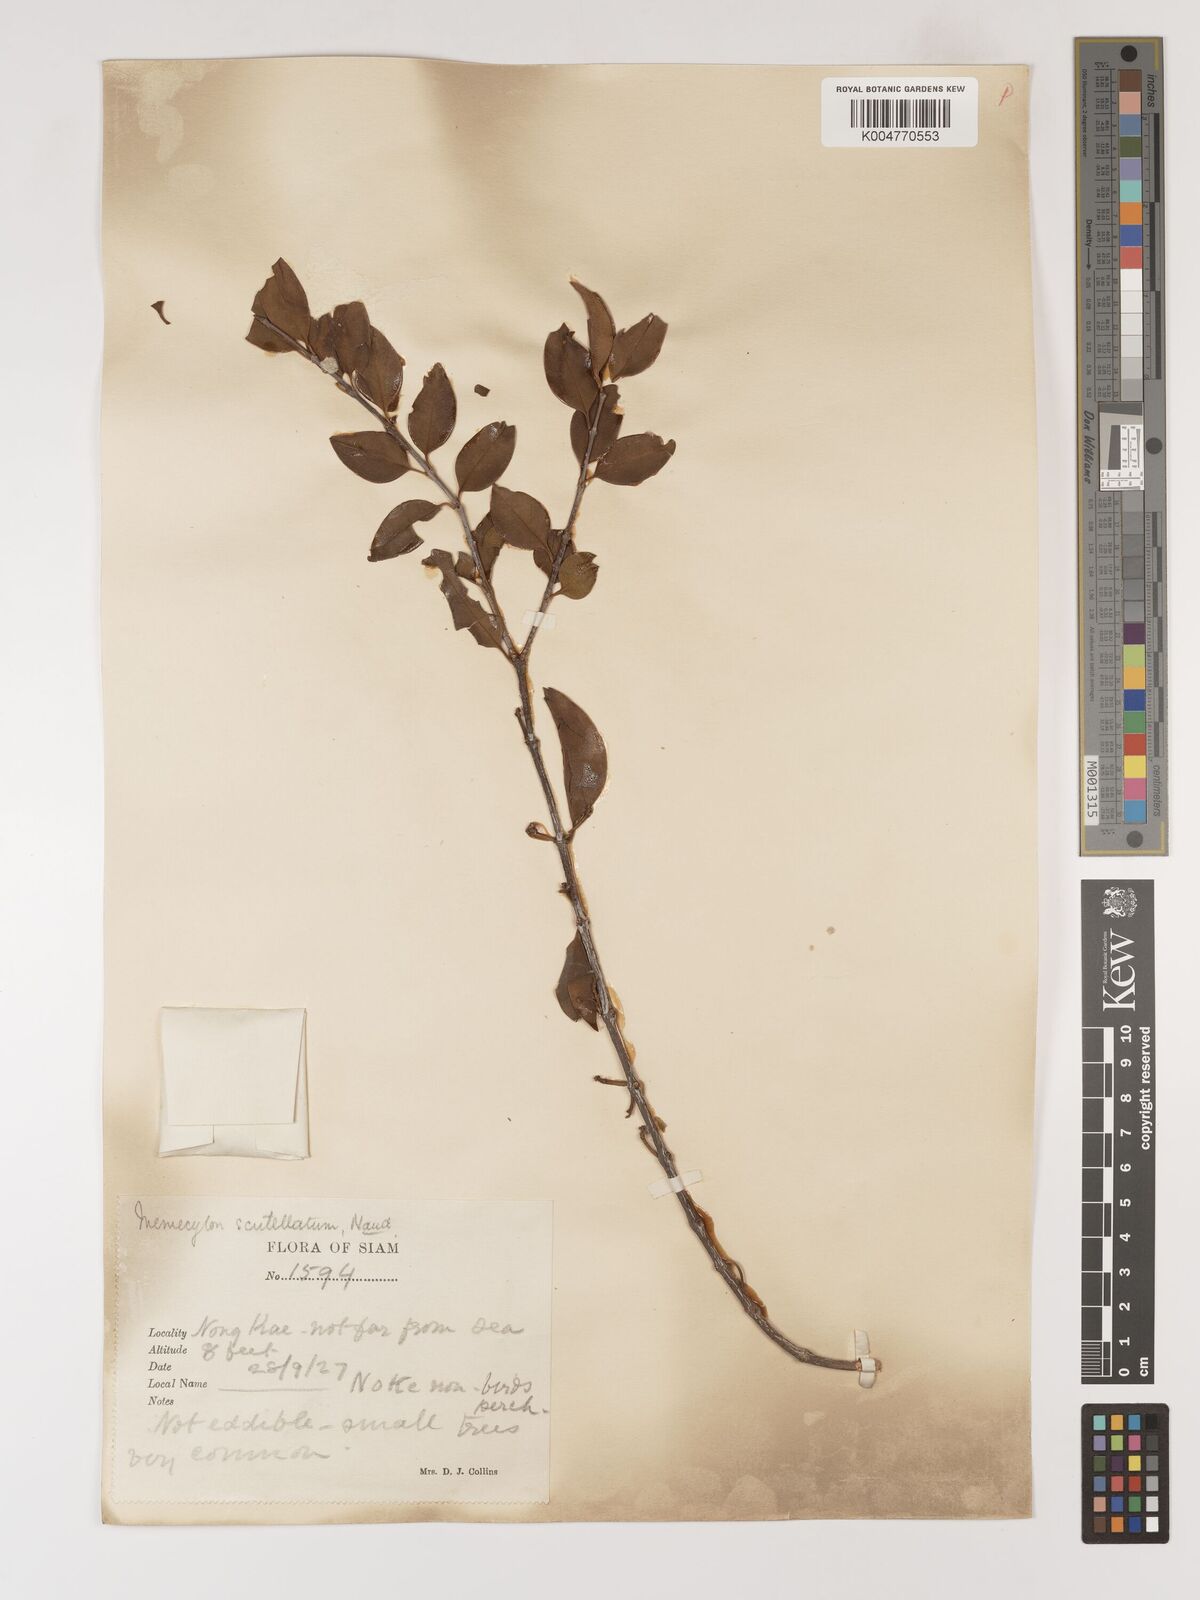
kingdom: Plantae
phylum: Tracheophyta
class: Magnoliopsida
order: Myrtales
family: Melastomataceae
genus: Memecylon
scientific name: Memecylon scutellatum
